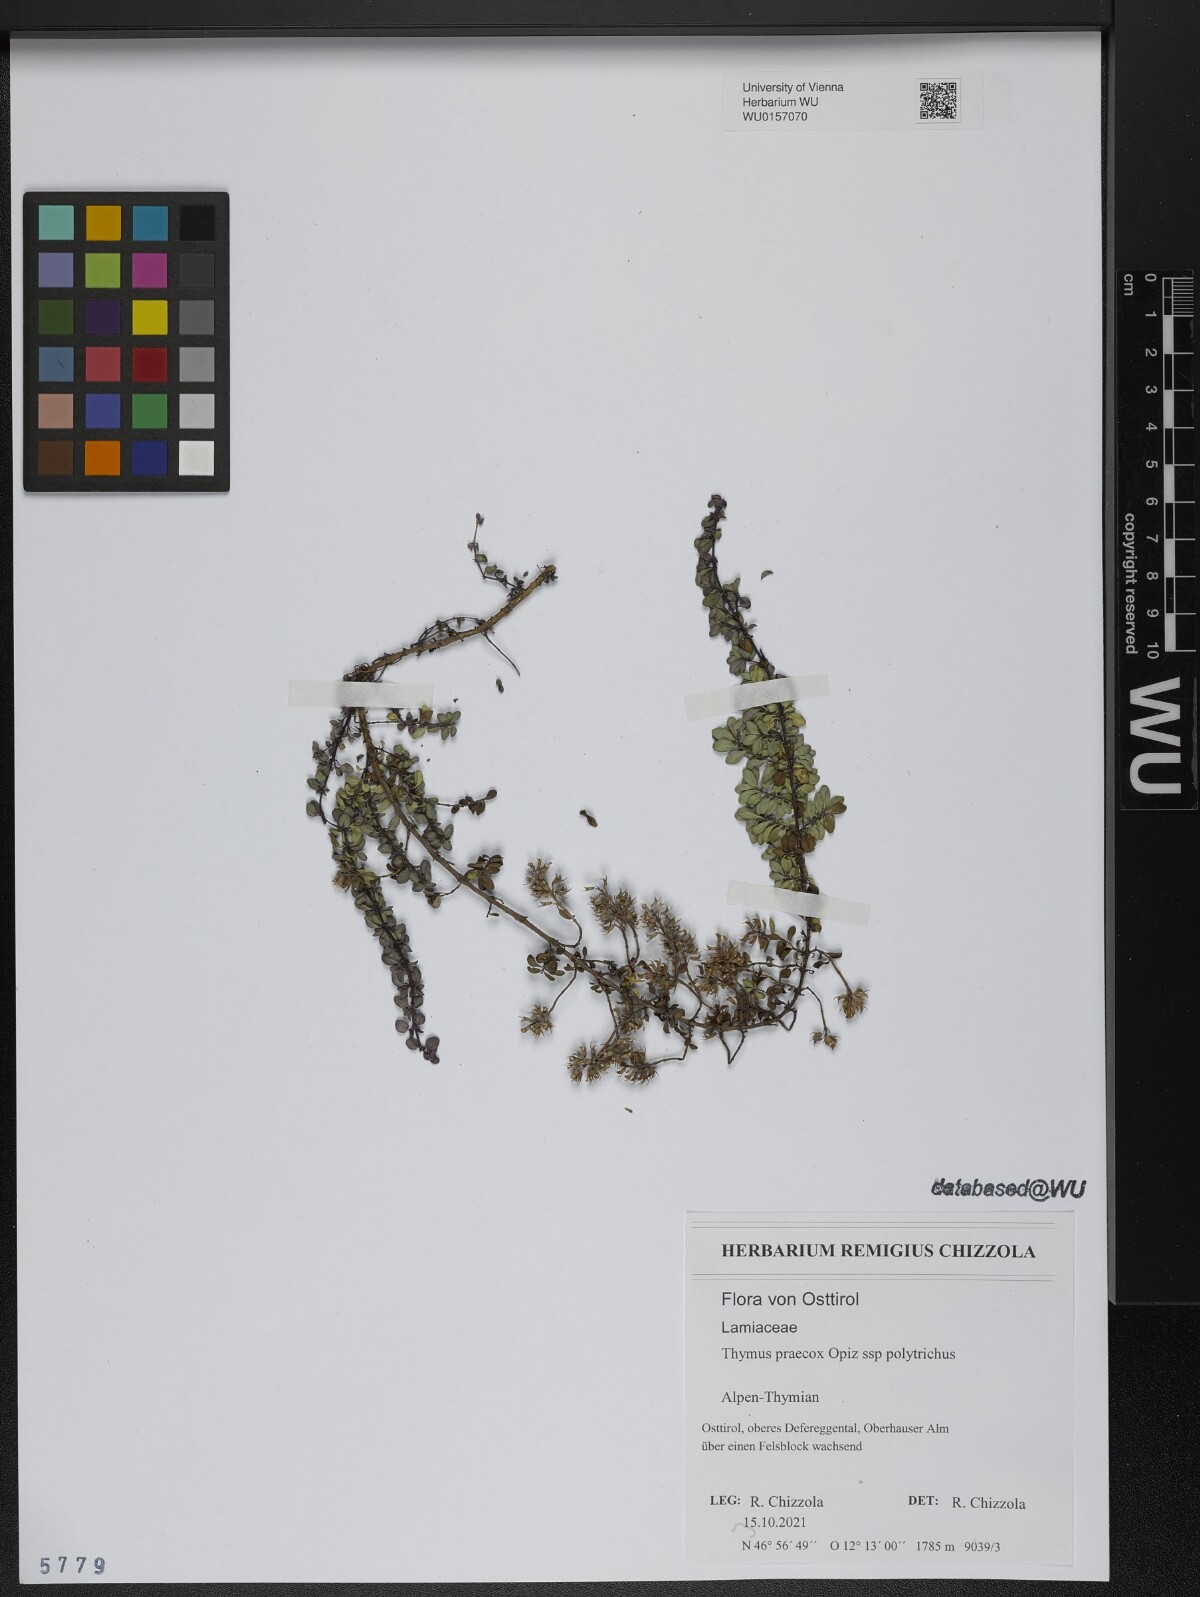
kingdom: Plantae
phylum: Tracheophyta
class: Magnoliopsida
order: Lamiales
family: Lamiaceae
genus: Thymus
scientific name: Thymus praecox
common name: Wild thyme
